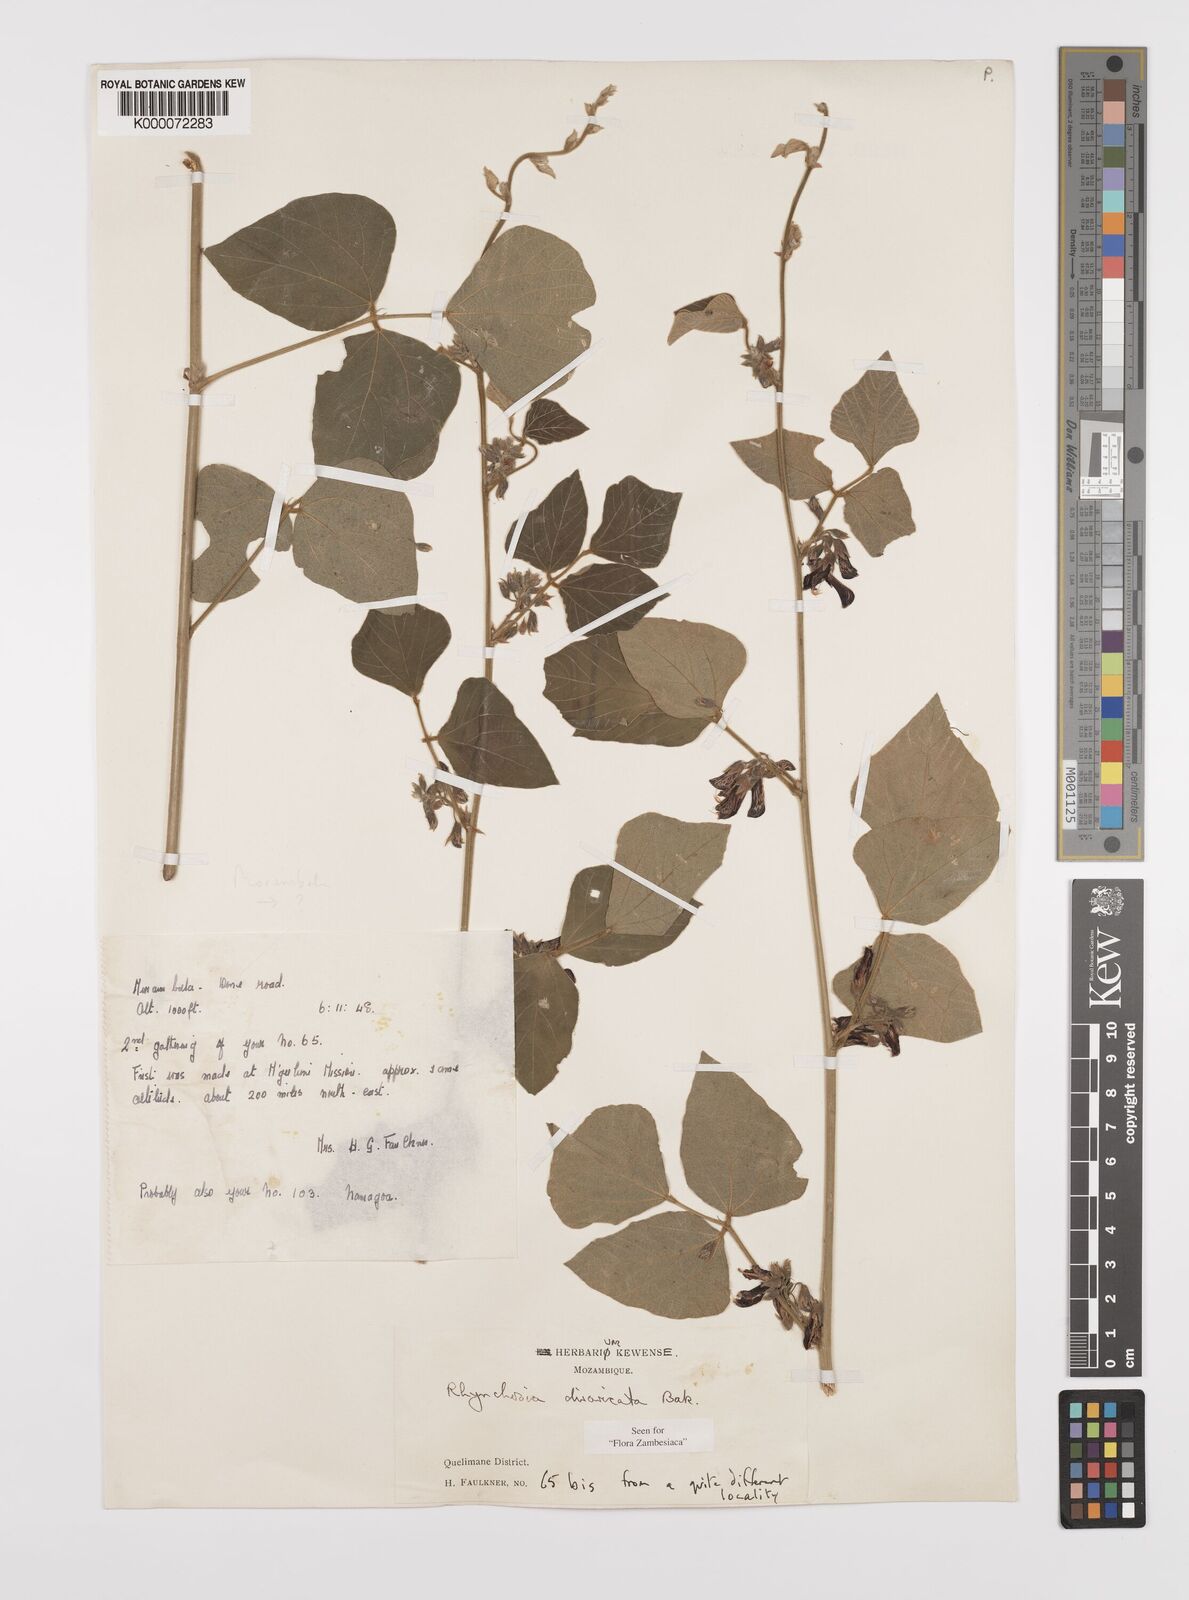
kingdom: Plantae
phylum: Tracheophyta
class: Magnoliopsida
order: Fabales
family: Fabaceae
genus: Rhynchosia
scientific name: Rhynchosia divaricata
